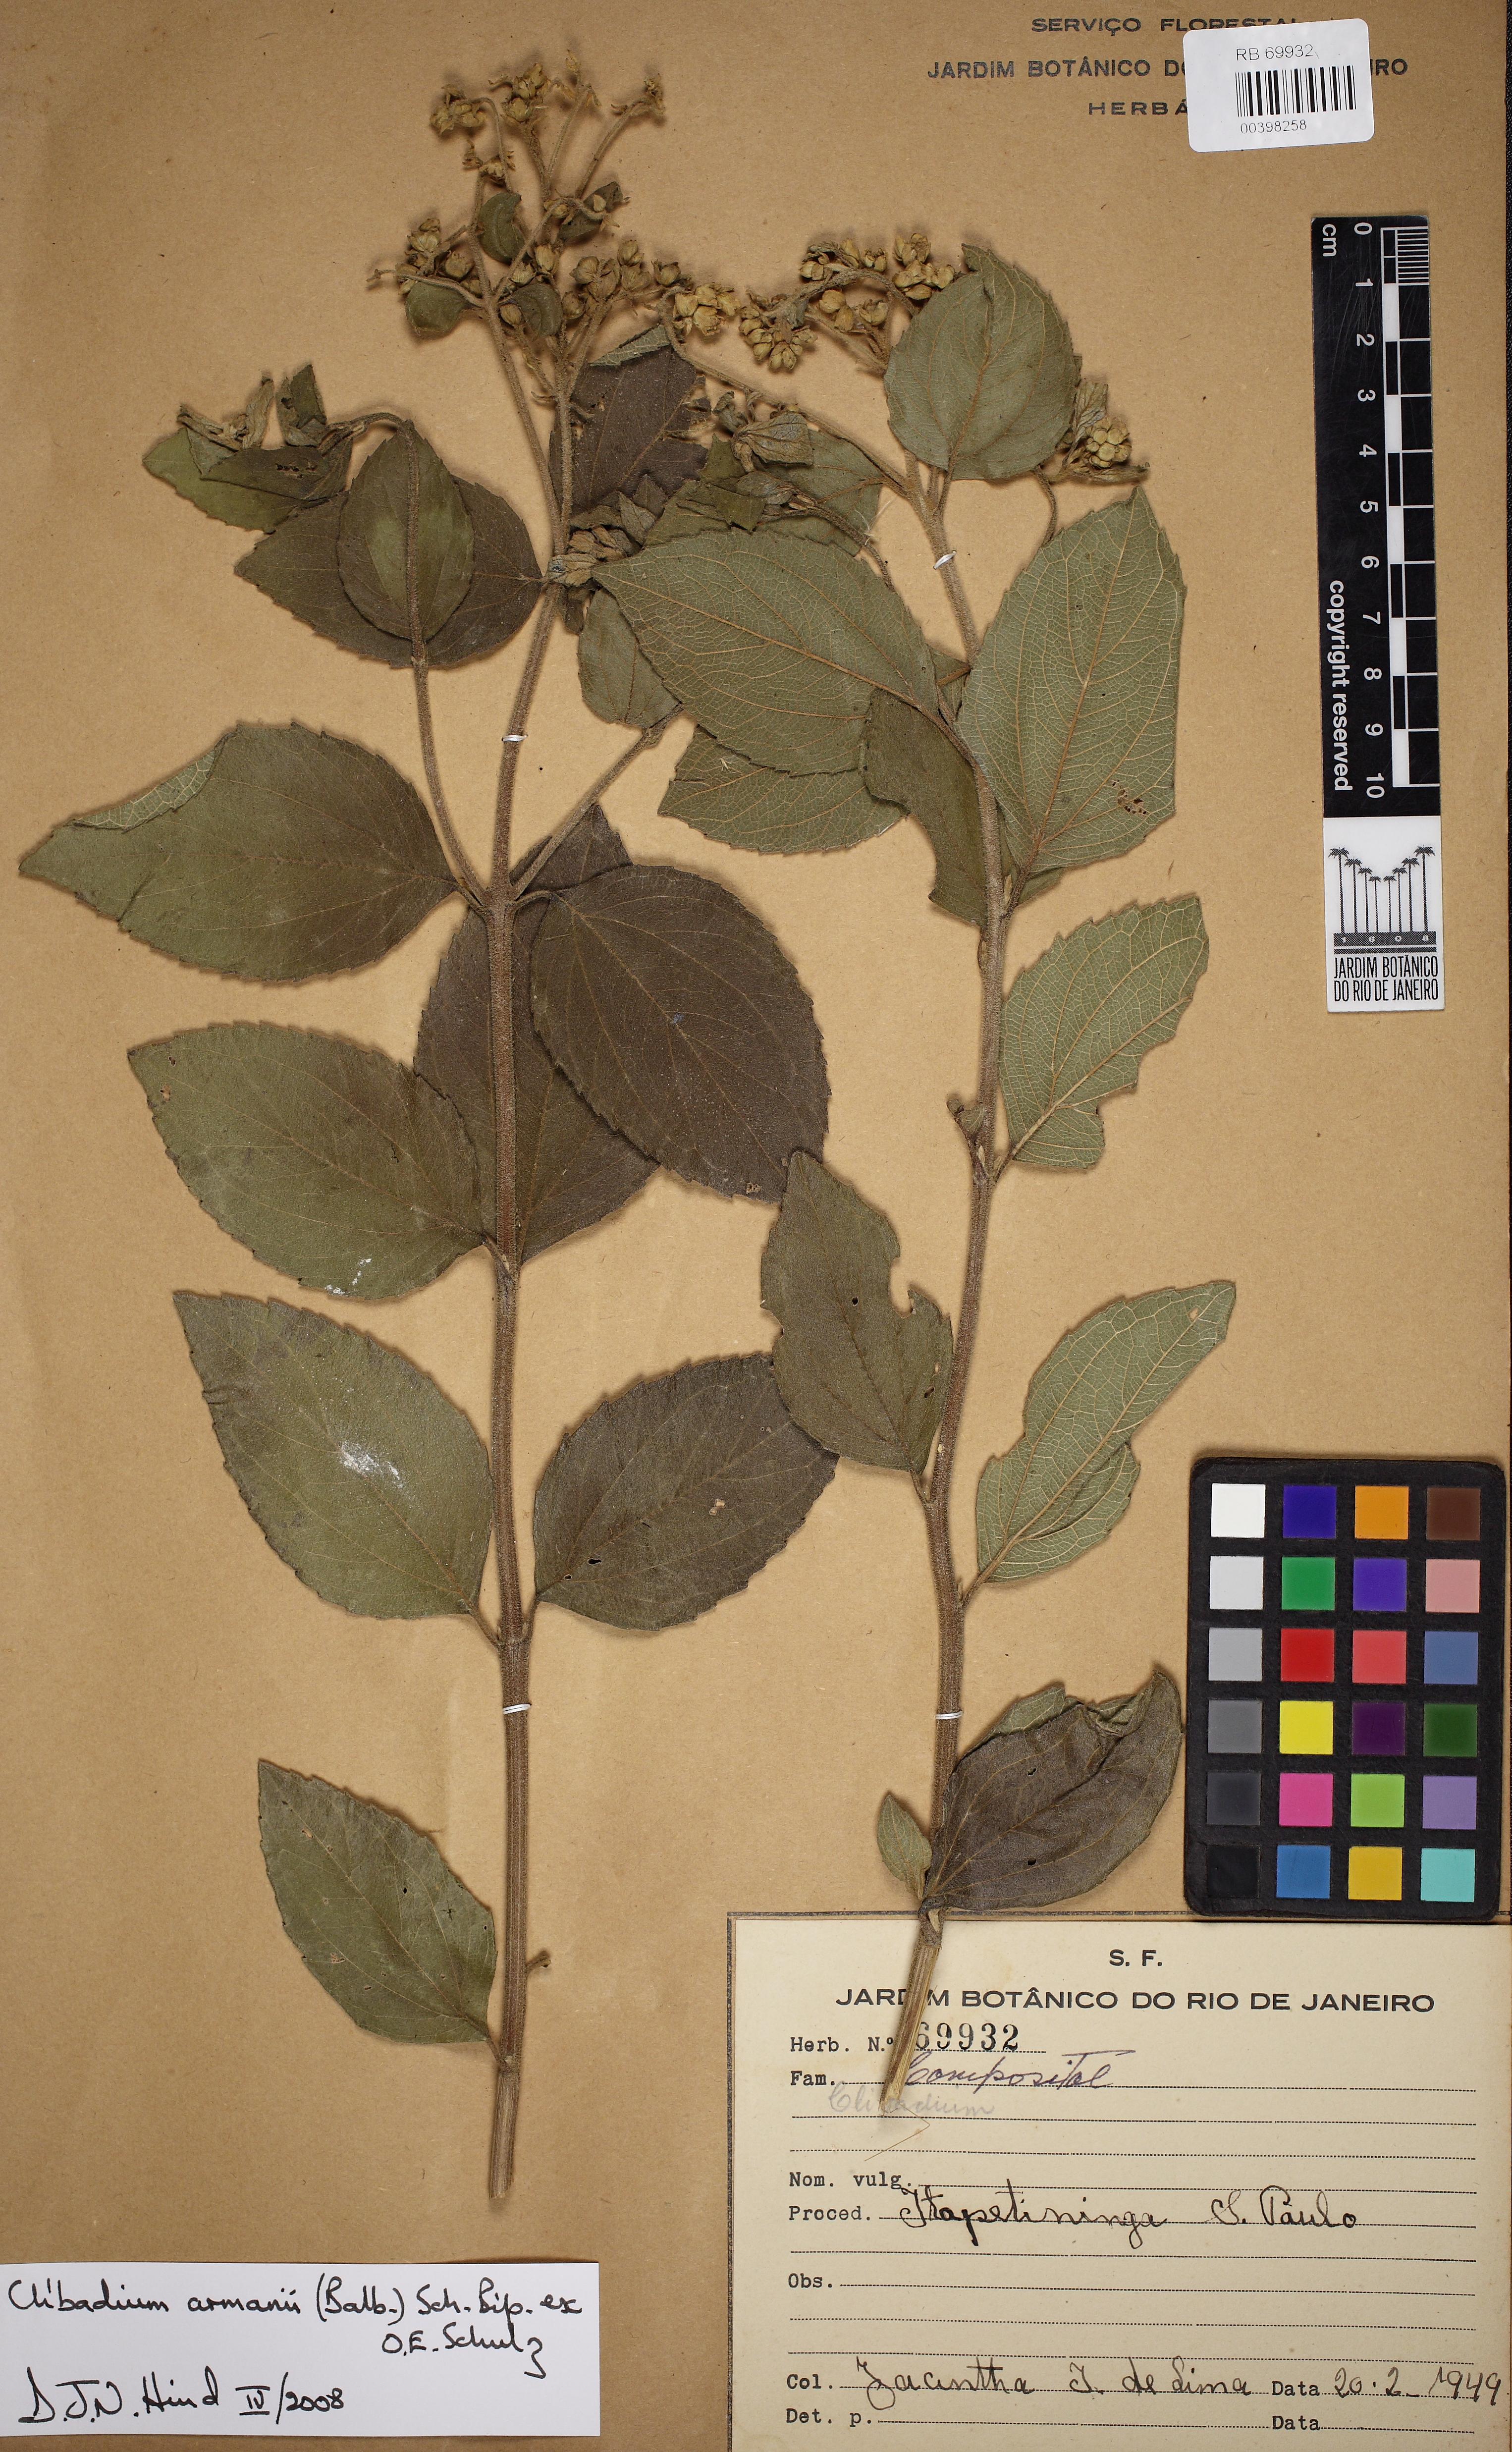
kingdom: Plantae
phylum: Tracheophyta
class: Magnoliopsida
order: Asterales
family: Asteraceae
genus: Clibadium
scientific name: Clibadium armanii
